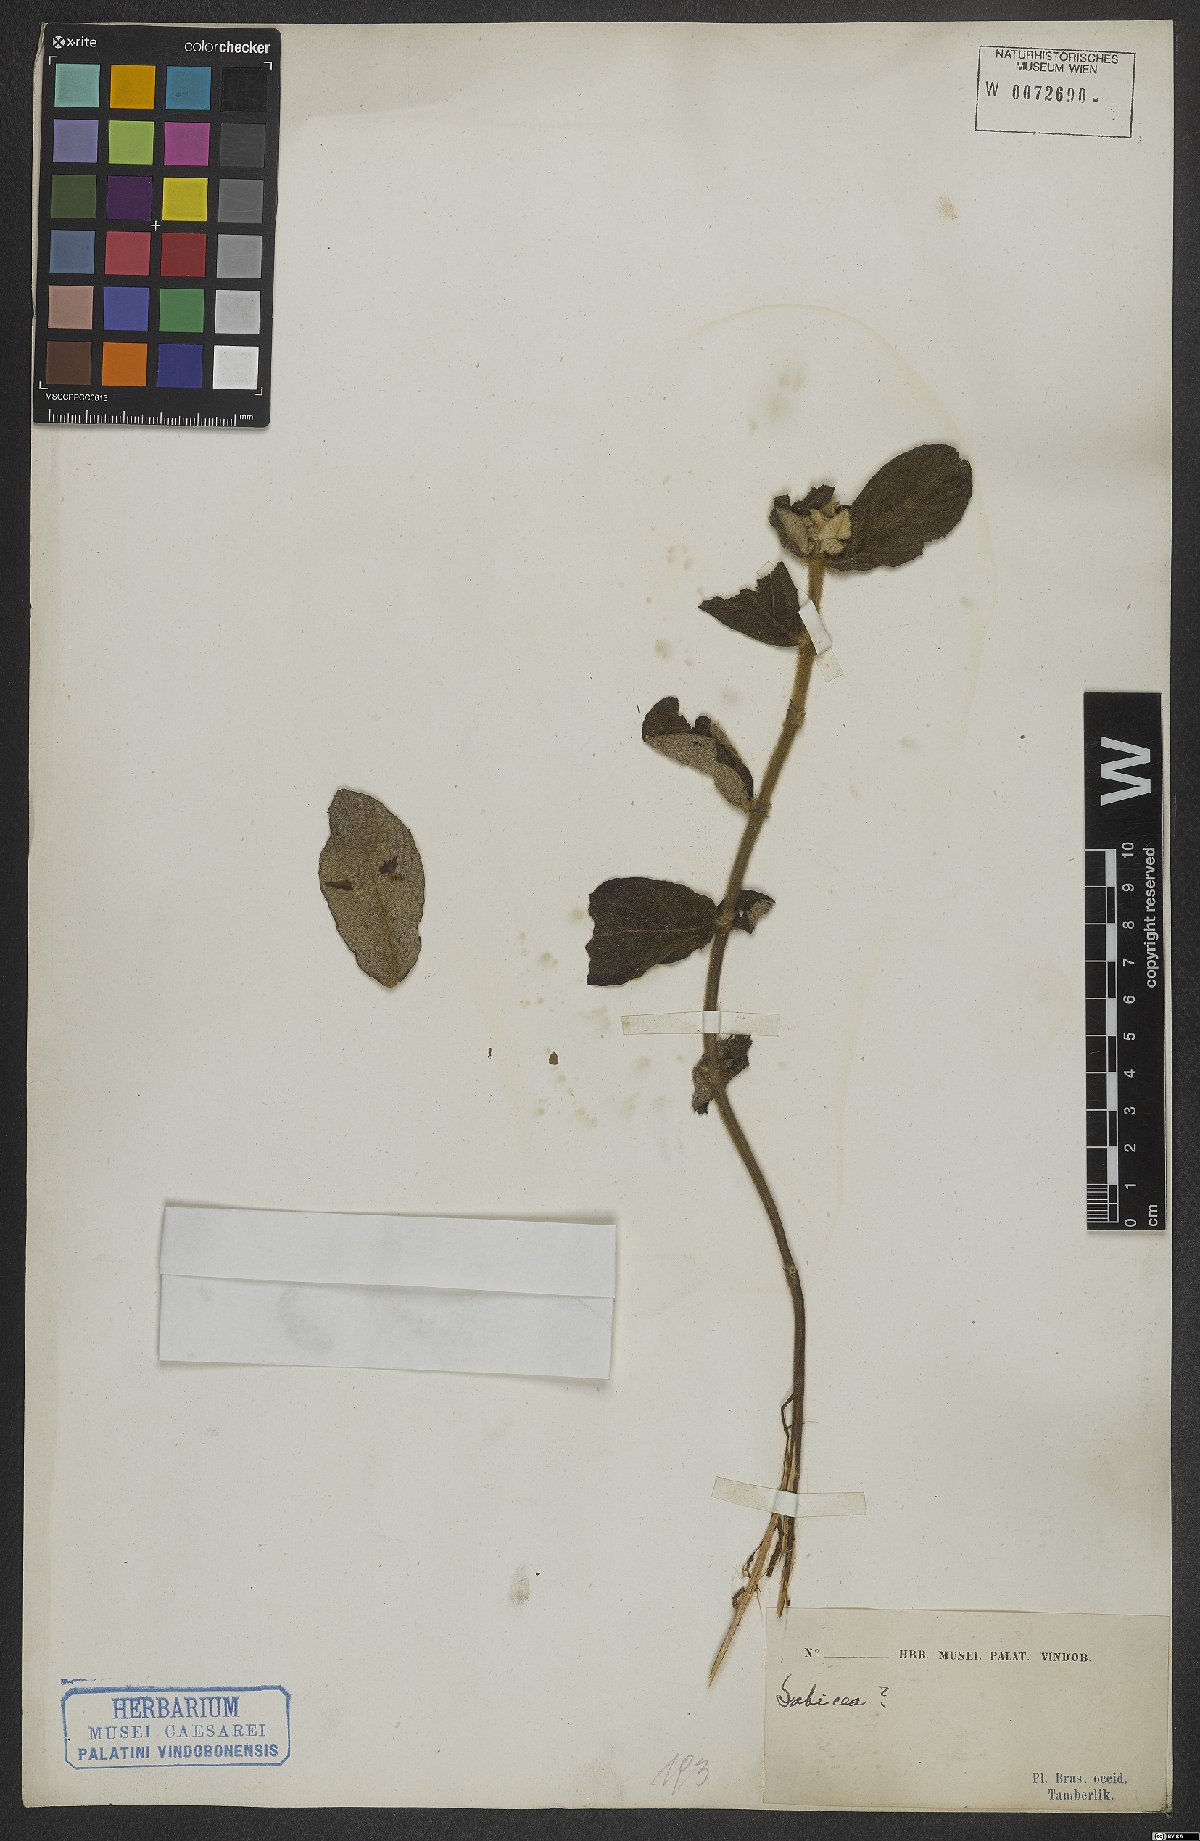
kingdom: Plantae
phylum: Tracheophyta
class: Magnoliopsida
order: Gentianales
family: Rubiaceae
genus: Sabicea
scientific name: Sabicea
